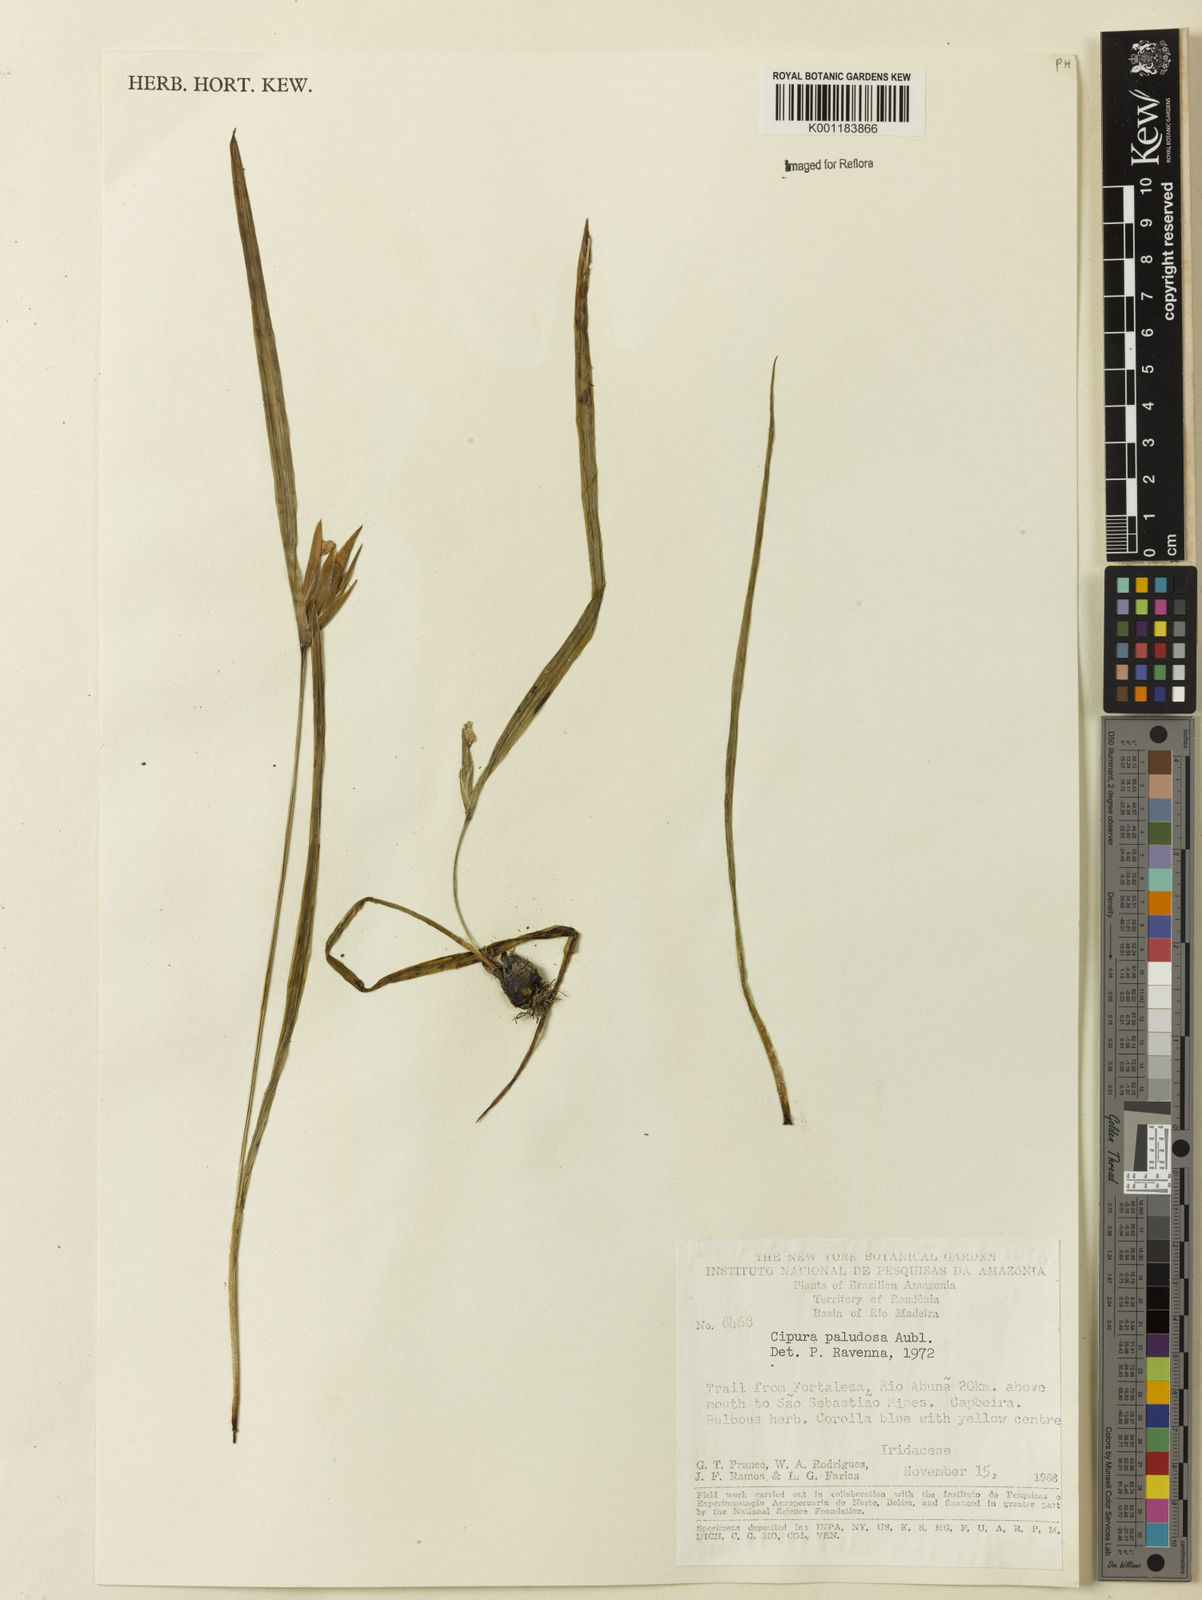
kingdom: Plantae
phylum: Tracheophyta
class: Liliopsida
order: Asparagales
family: Iridaceae
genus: Cipura
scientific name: Cipura paludosa
